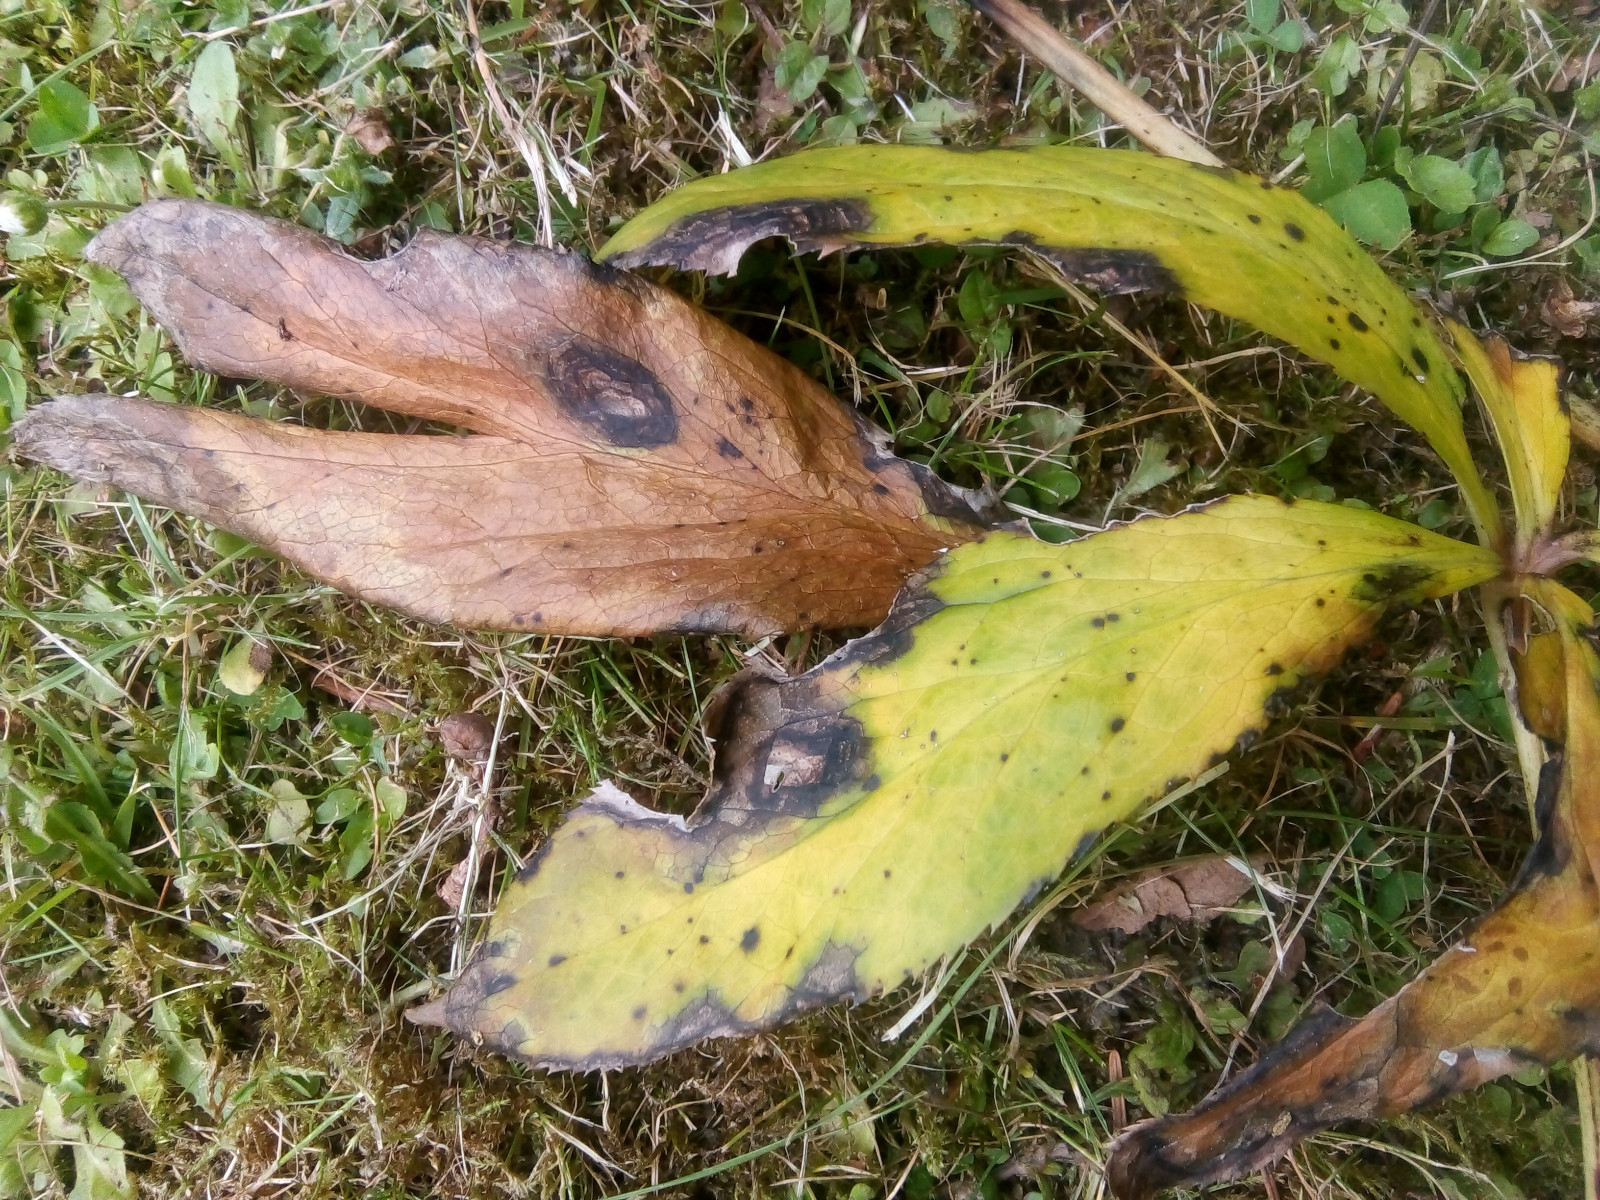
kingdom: Fungi
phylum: Ascomycota
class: Dothideomycetes
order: Pleosporales
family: Didymellaceae
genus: Microsphaeropsis
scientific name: Microsphaeropsis hellebori
